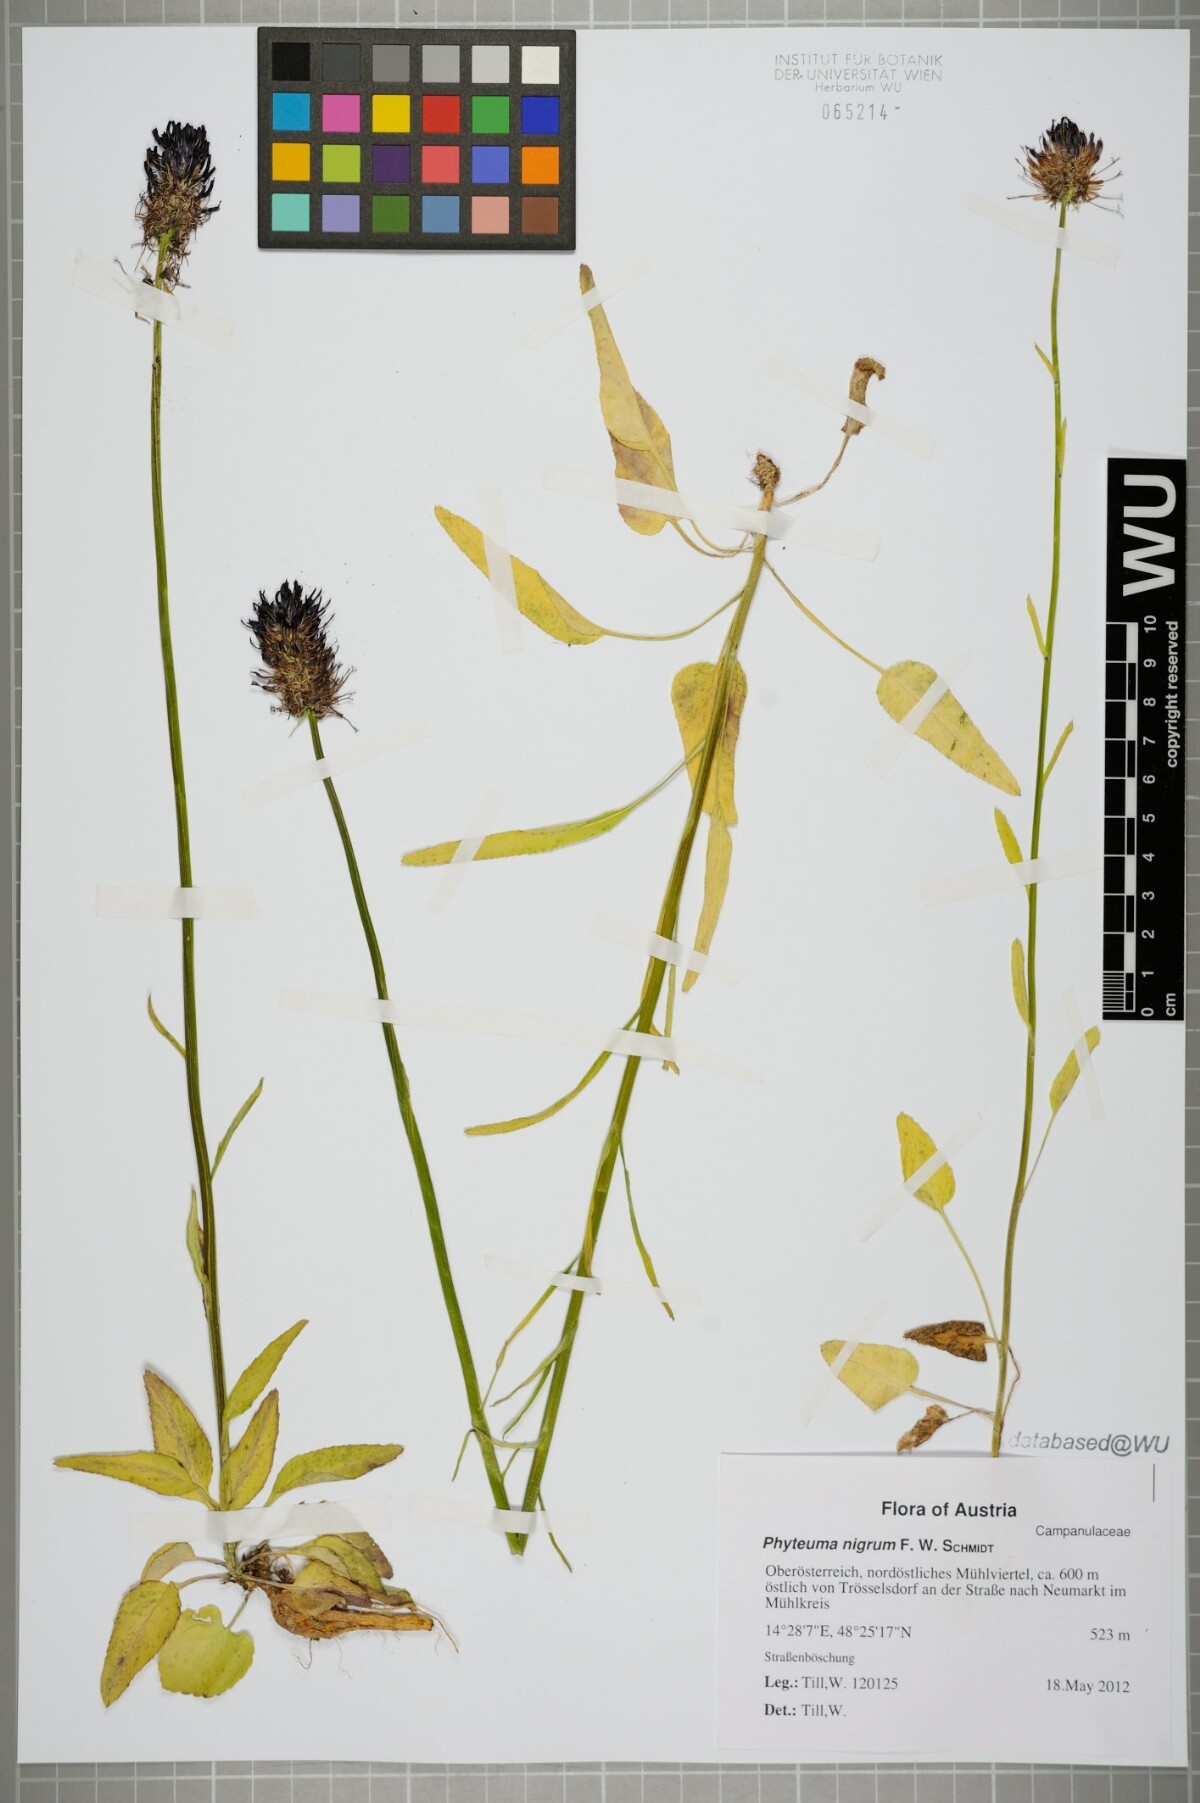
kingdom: Plantae
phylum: Tracheophyta
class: Magnoliopsida
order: Asterales
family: Campanulaceae
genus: Phyteuma
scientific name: Phyteuma nigrum
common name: Black rampion
